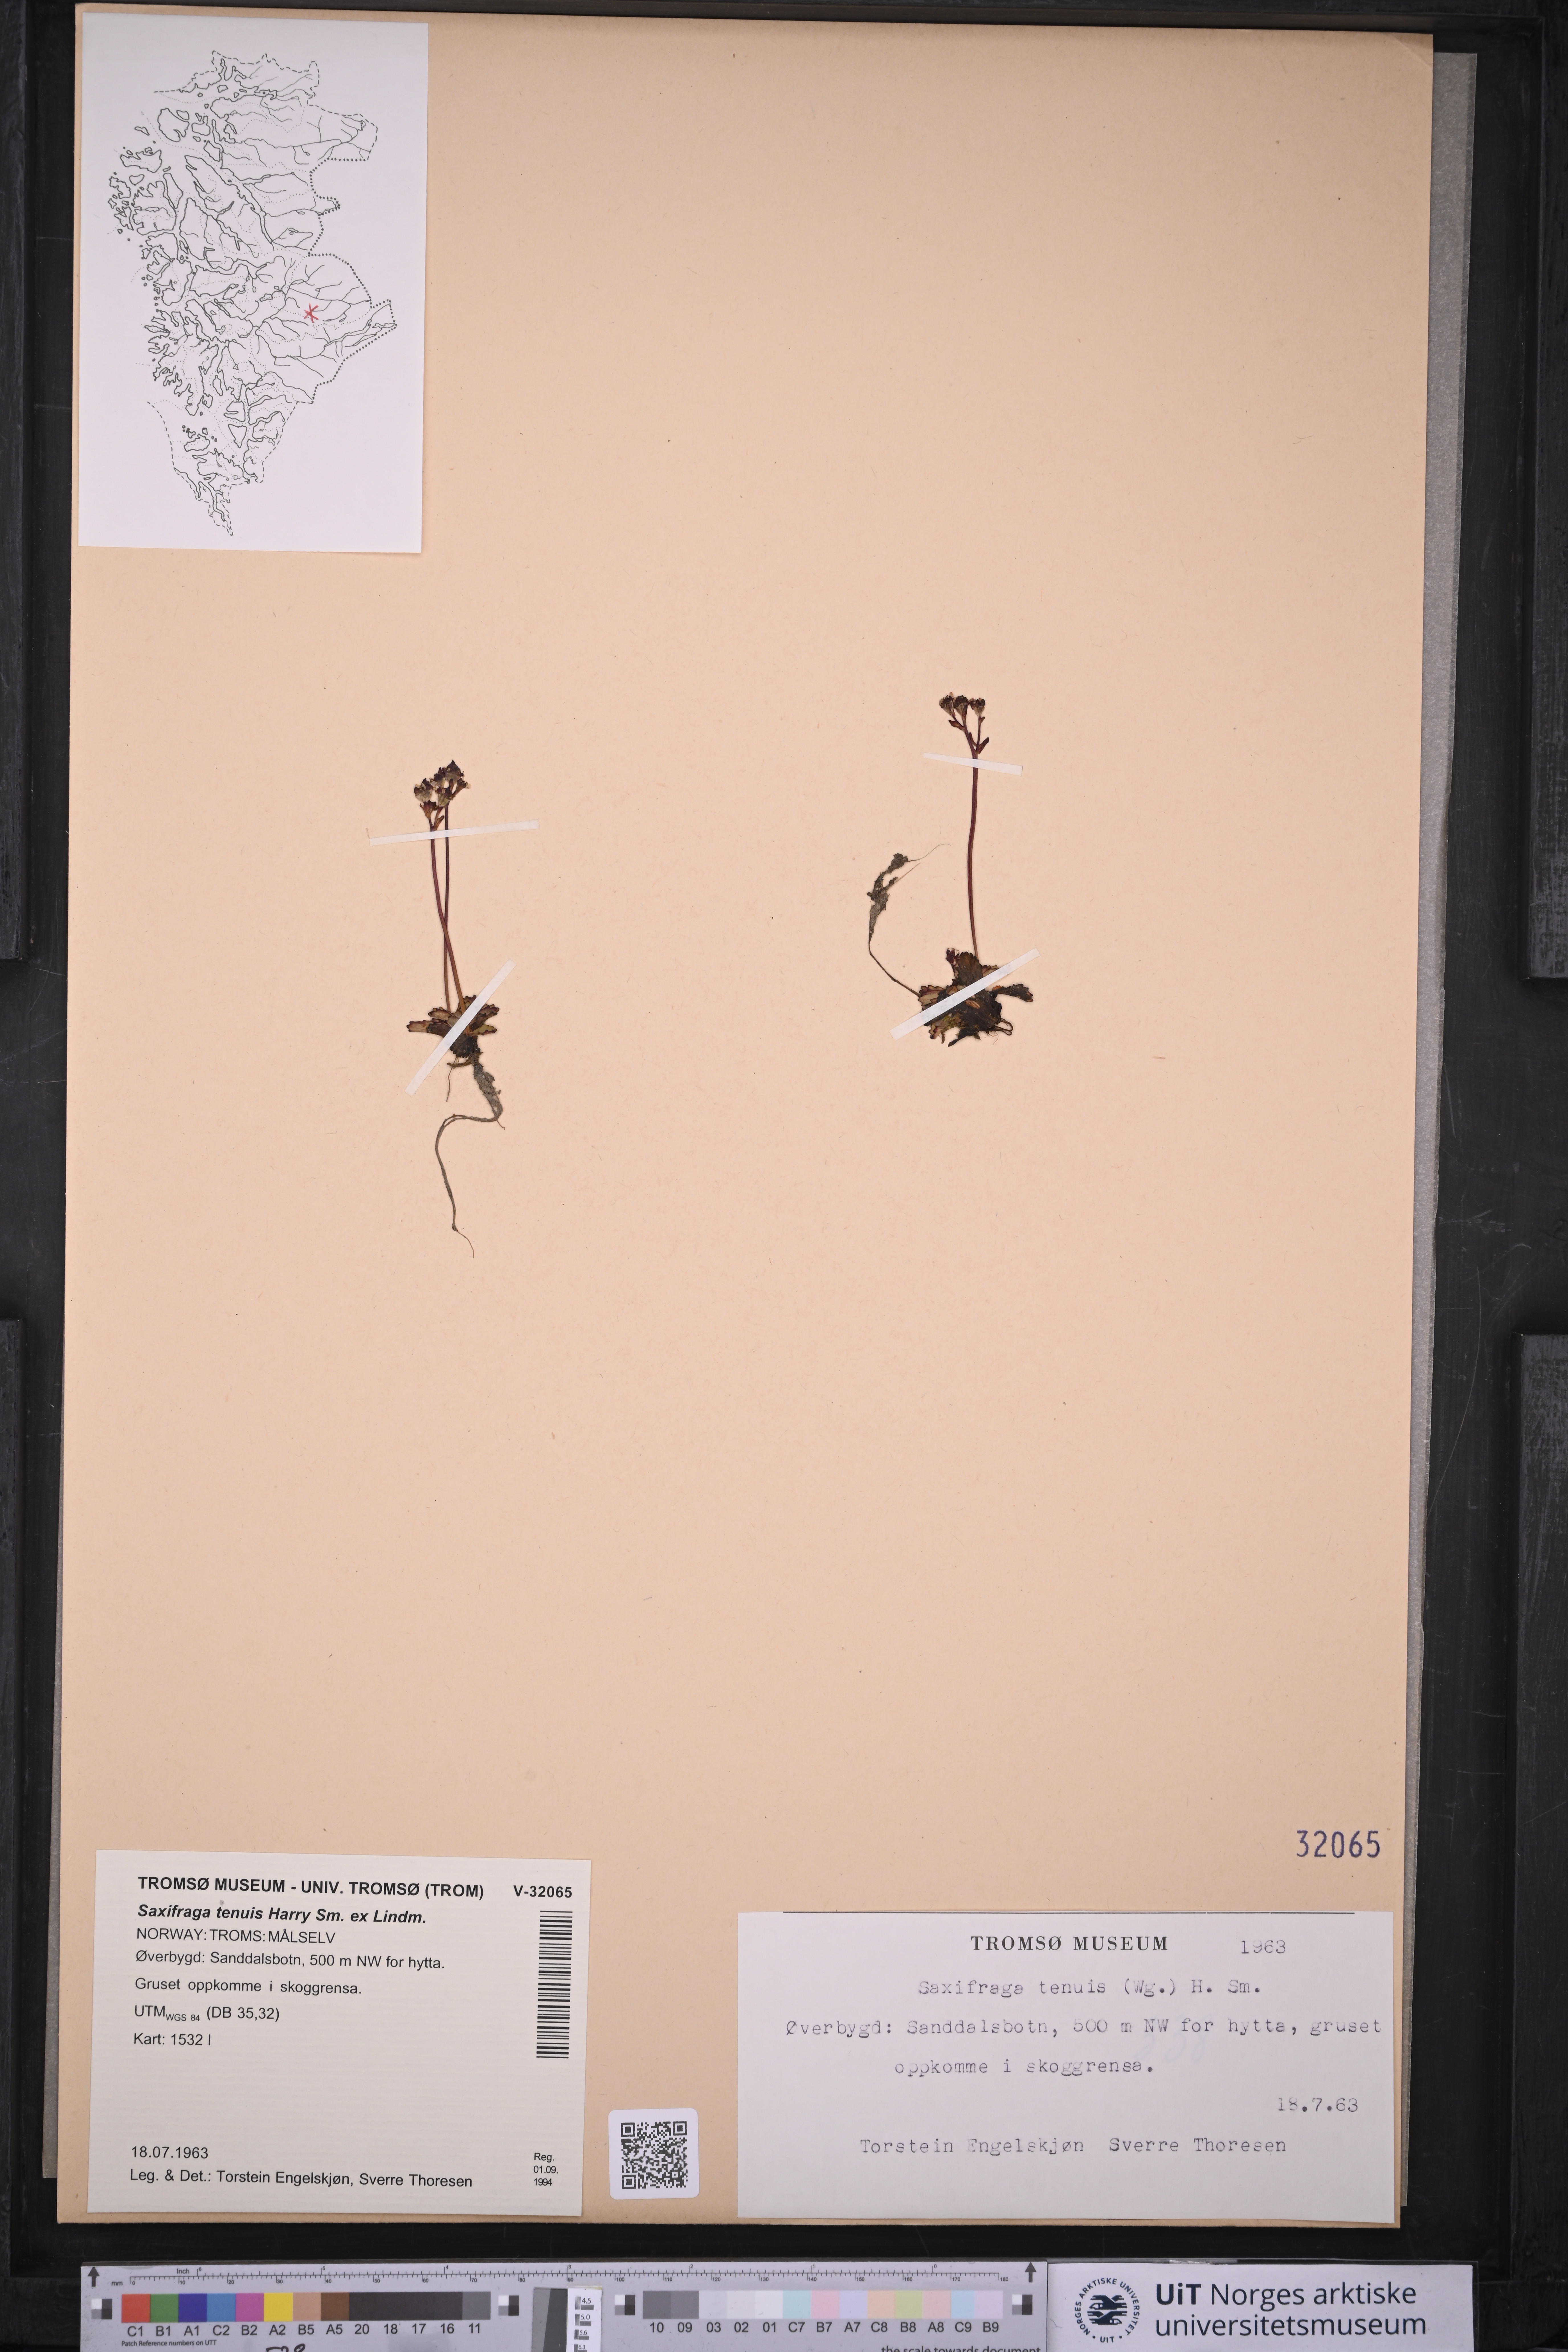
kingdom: Plantae
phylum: Tracheophyta
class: Magnoliopsida
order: Saxifragales
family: Saxifragaceae
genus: Micranthes
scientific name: Micranthes tenuis
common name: Ottertail pass saxifrage
